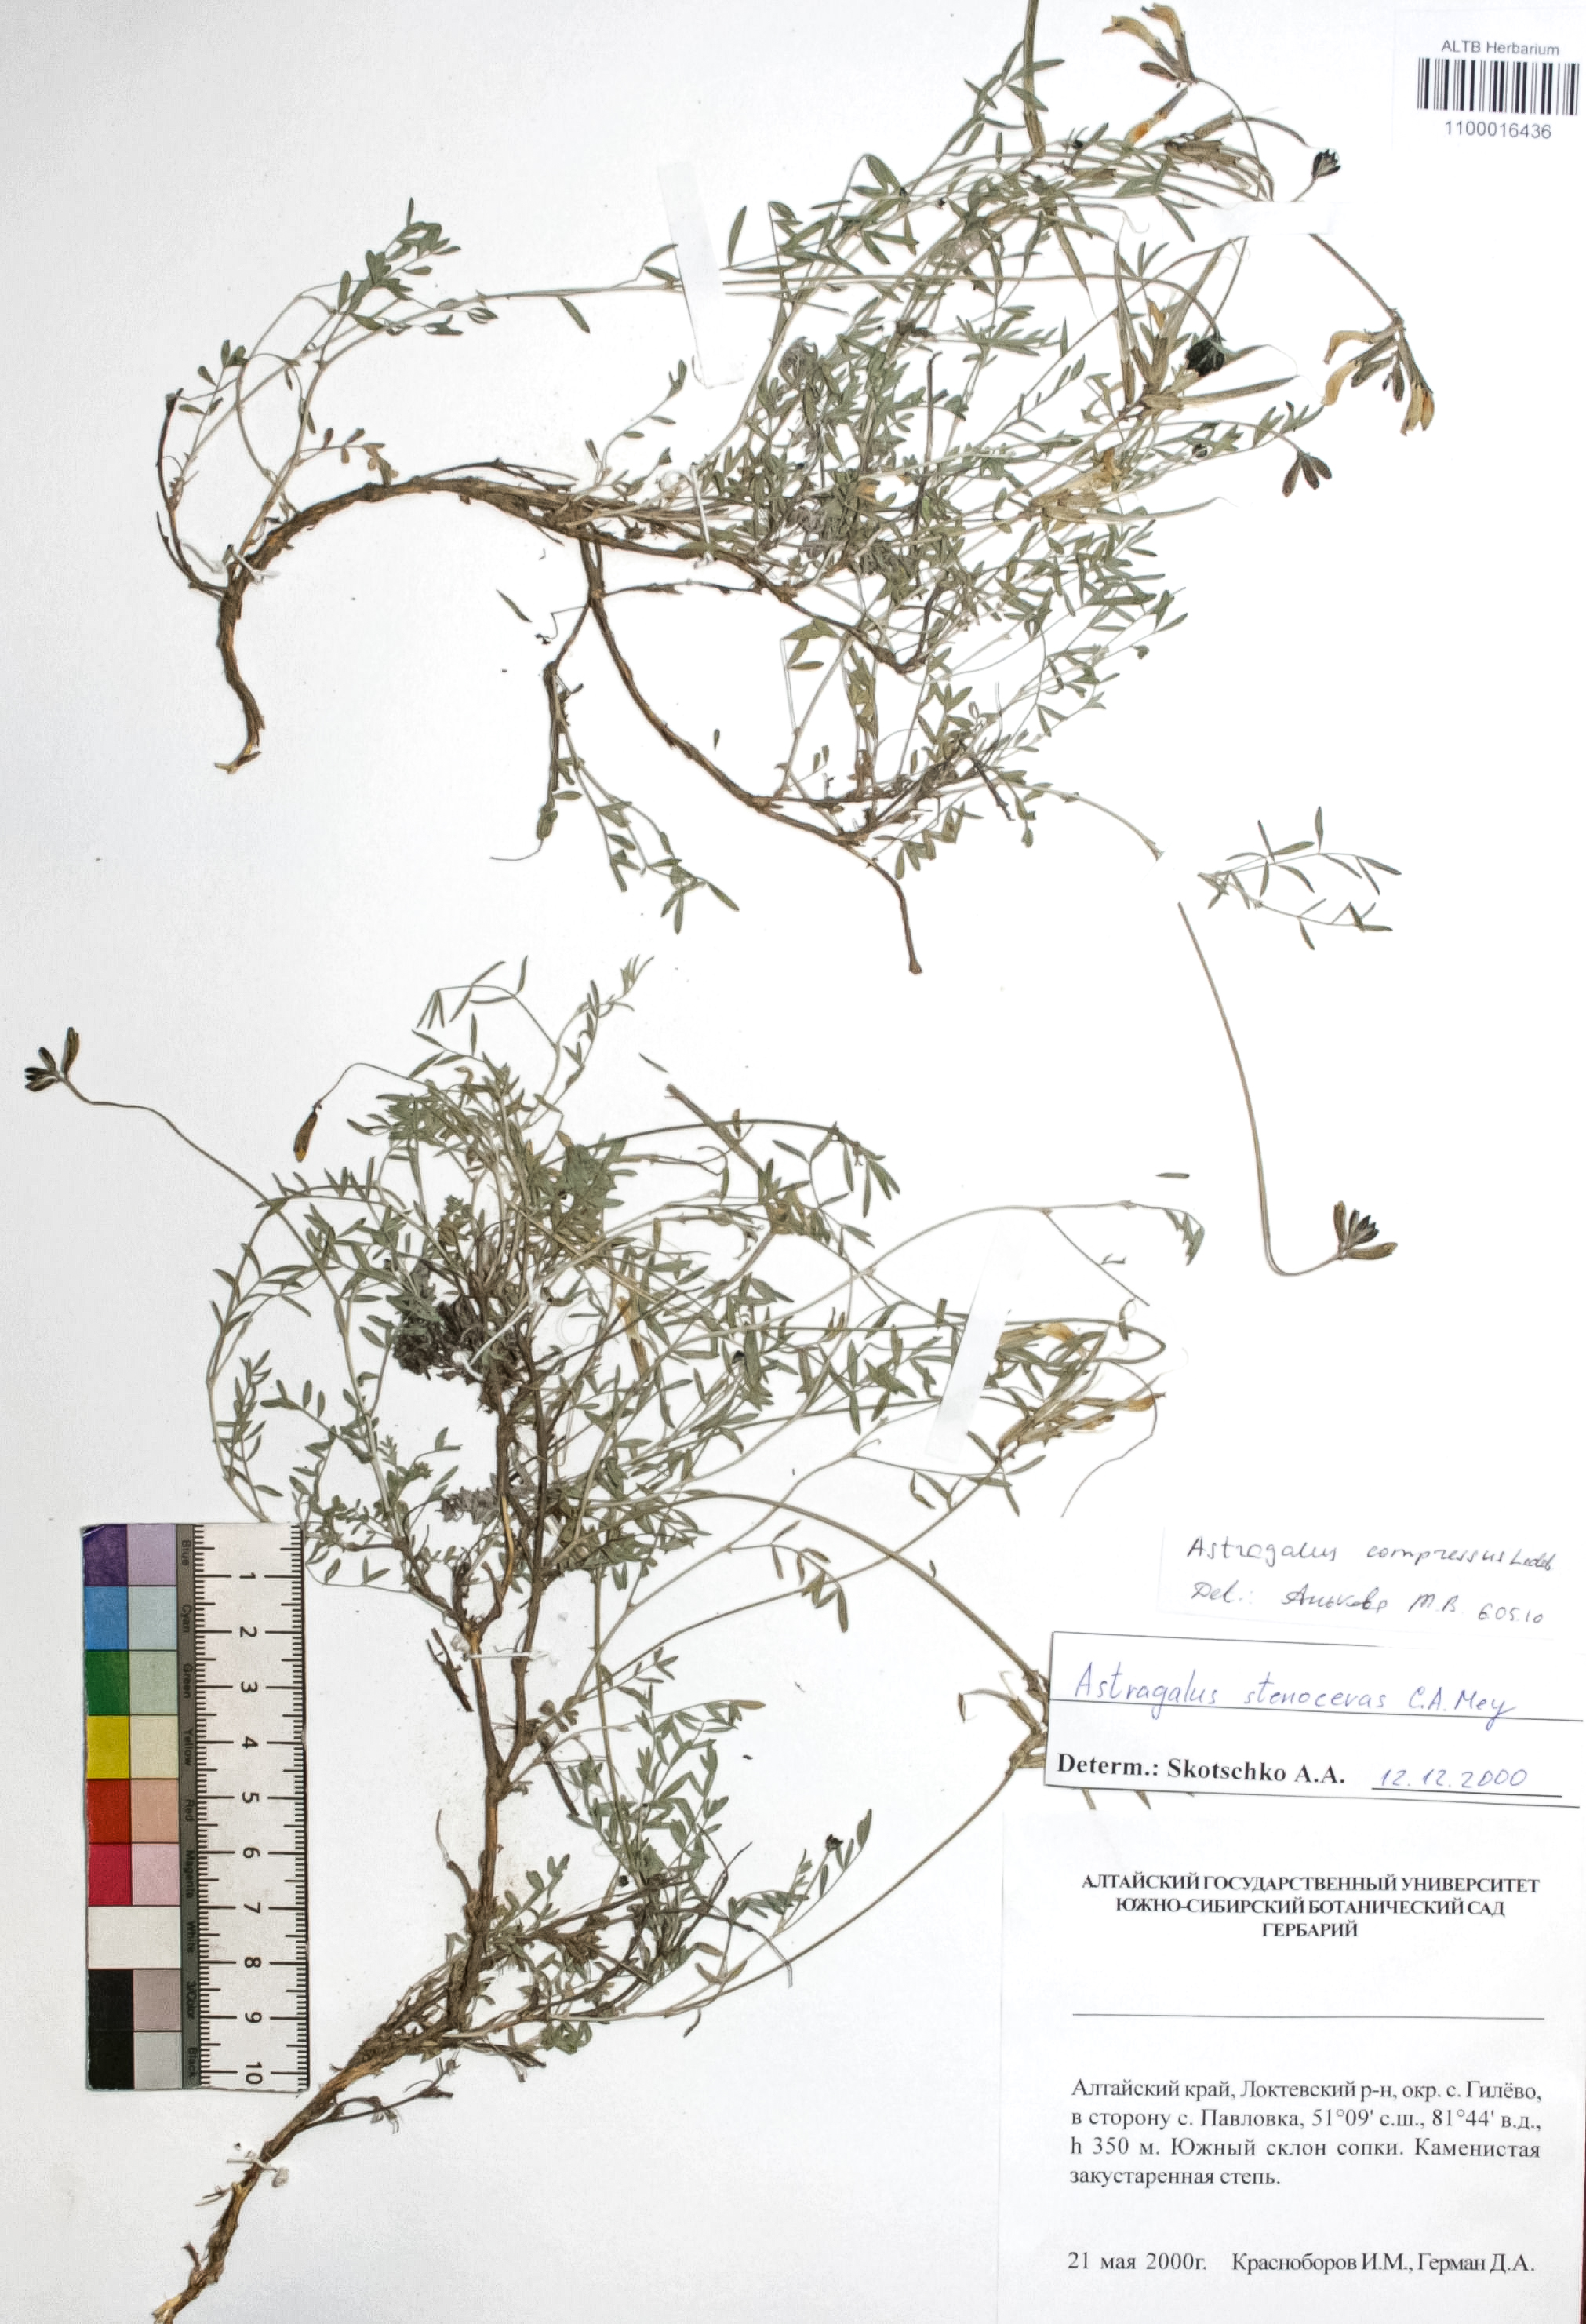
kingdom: Plantae
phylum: Tracheophyta
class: Magnoliopsida
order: Fabales
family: Fabaceae
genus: Astragalus
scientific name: Astragalus compressus
